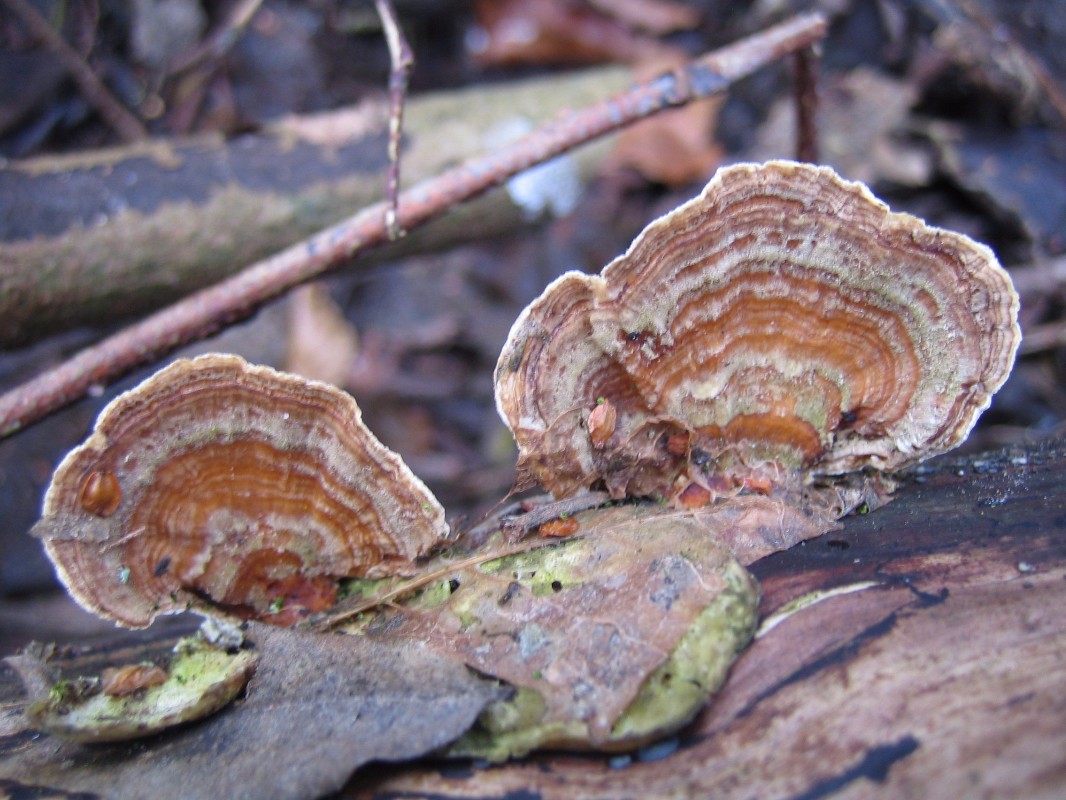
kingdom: Fungi
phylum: Basidiomycota
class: Agaricomycetes
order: Russulales
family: Stereaceae
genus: Stereum
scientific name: Stereum subtomentosum
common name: smuk lædersvamp
